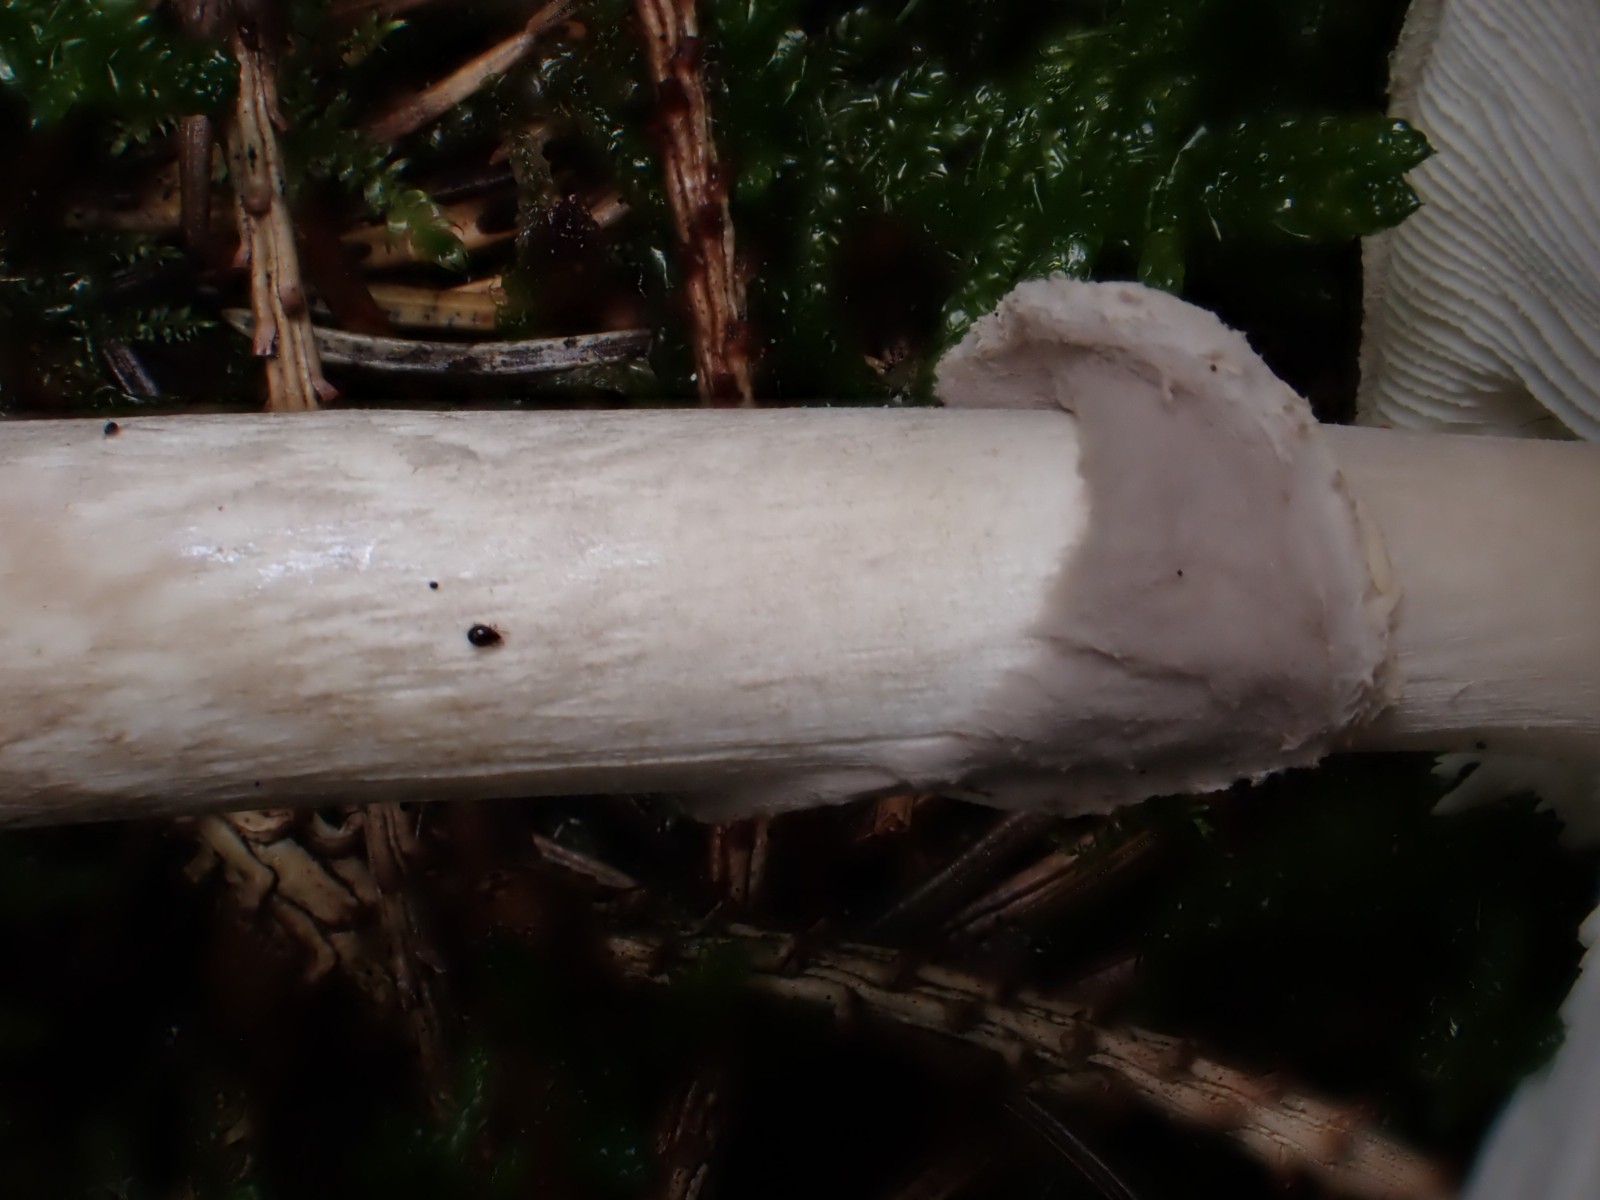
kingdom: Fungi
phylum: Basidiomycota
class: Agaricomycetes
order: Agaricales
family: Amanitaceae
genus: Amanita
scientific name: Amanita
